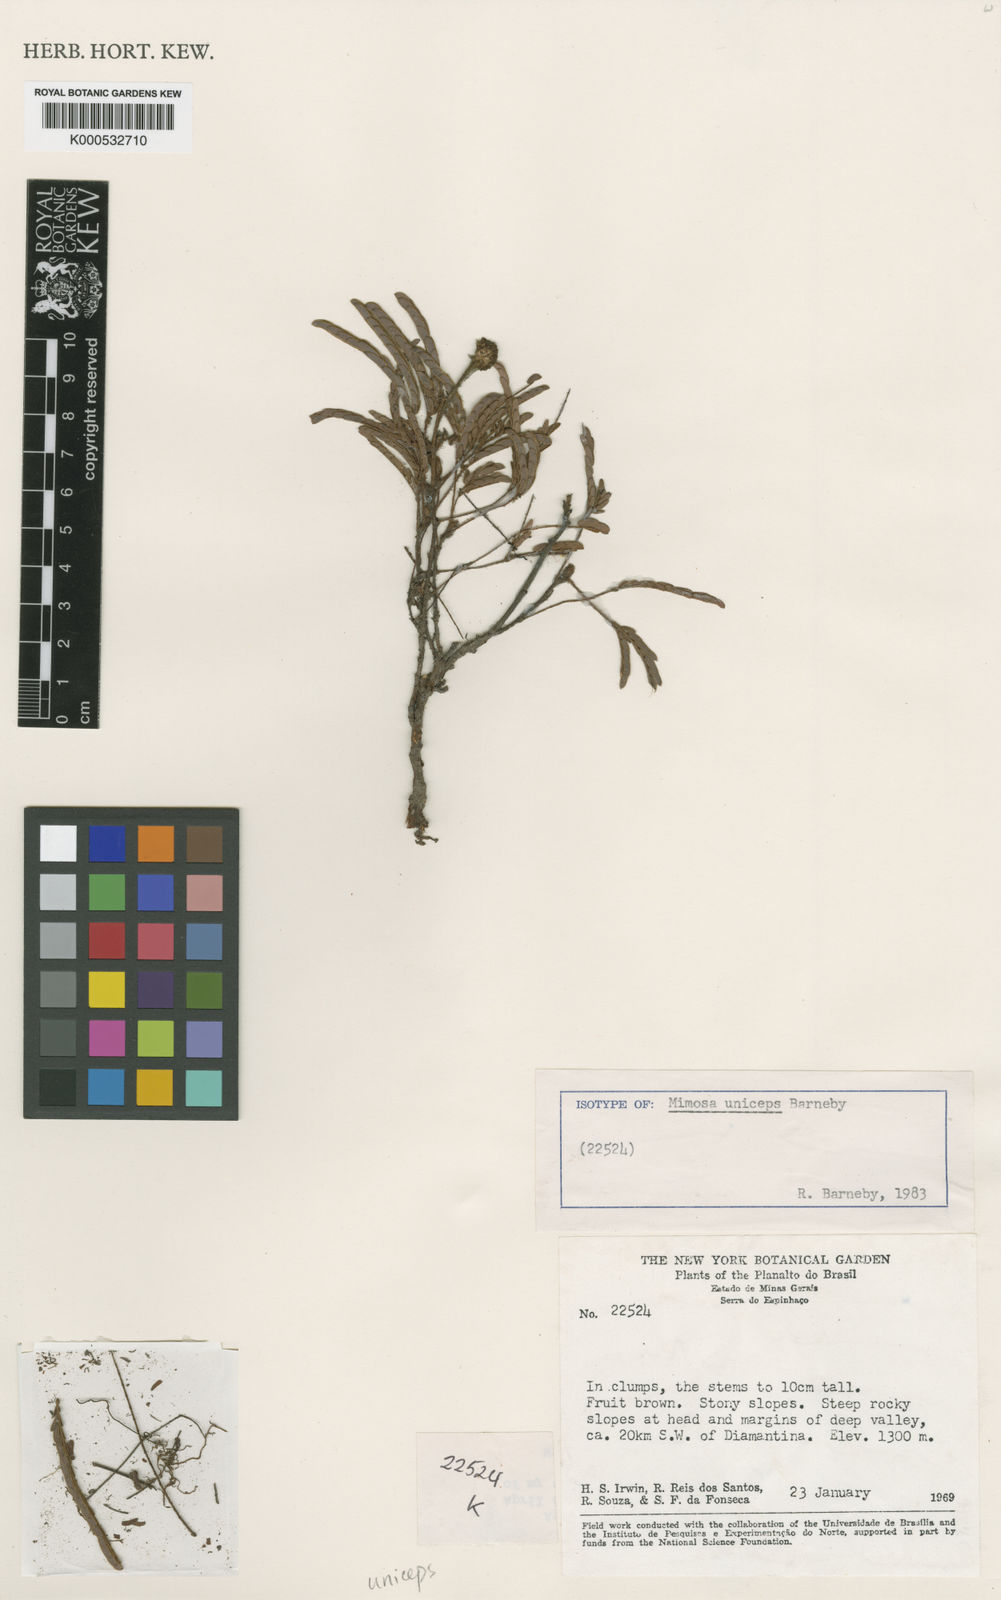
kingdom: Plantae
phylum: Tracheophyta
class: Magnoliopsida
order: Fabales
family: Fabaceae
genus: Mimosa
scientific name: Mimosa uniceps
